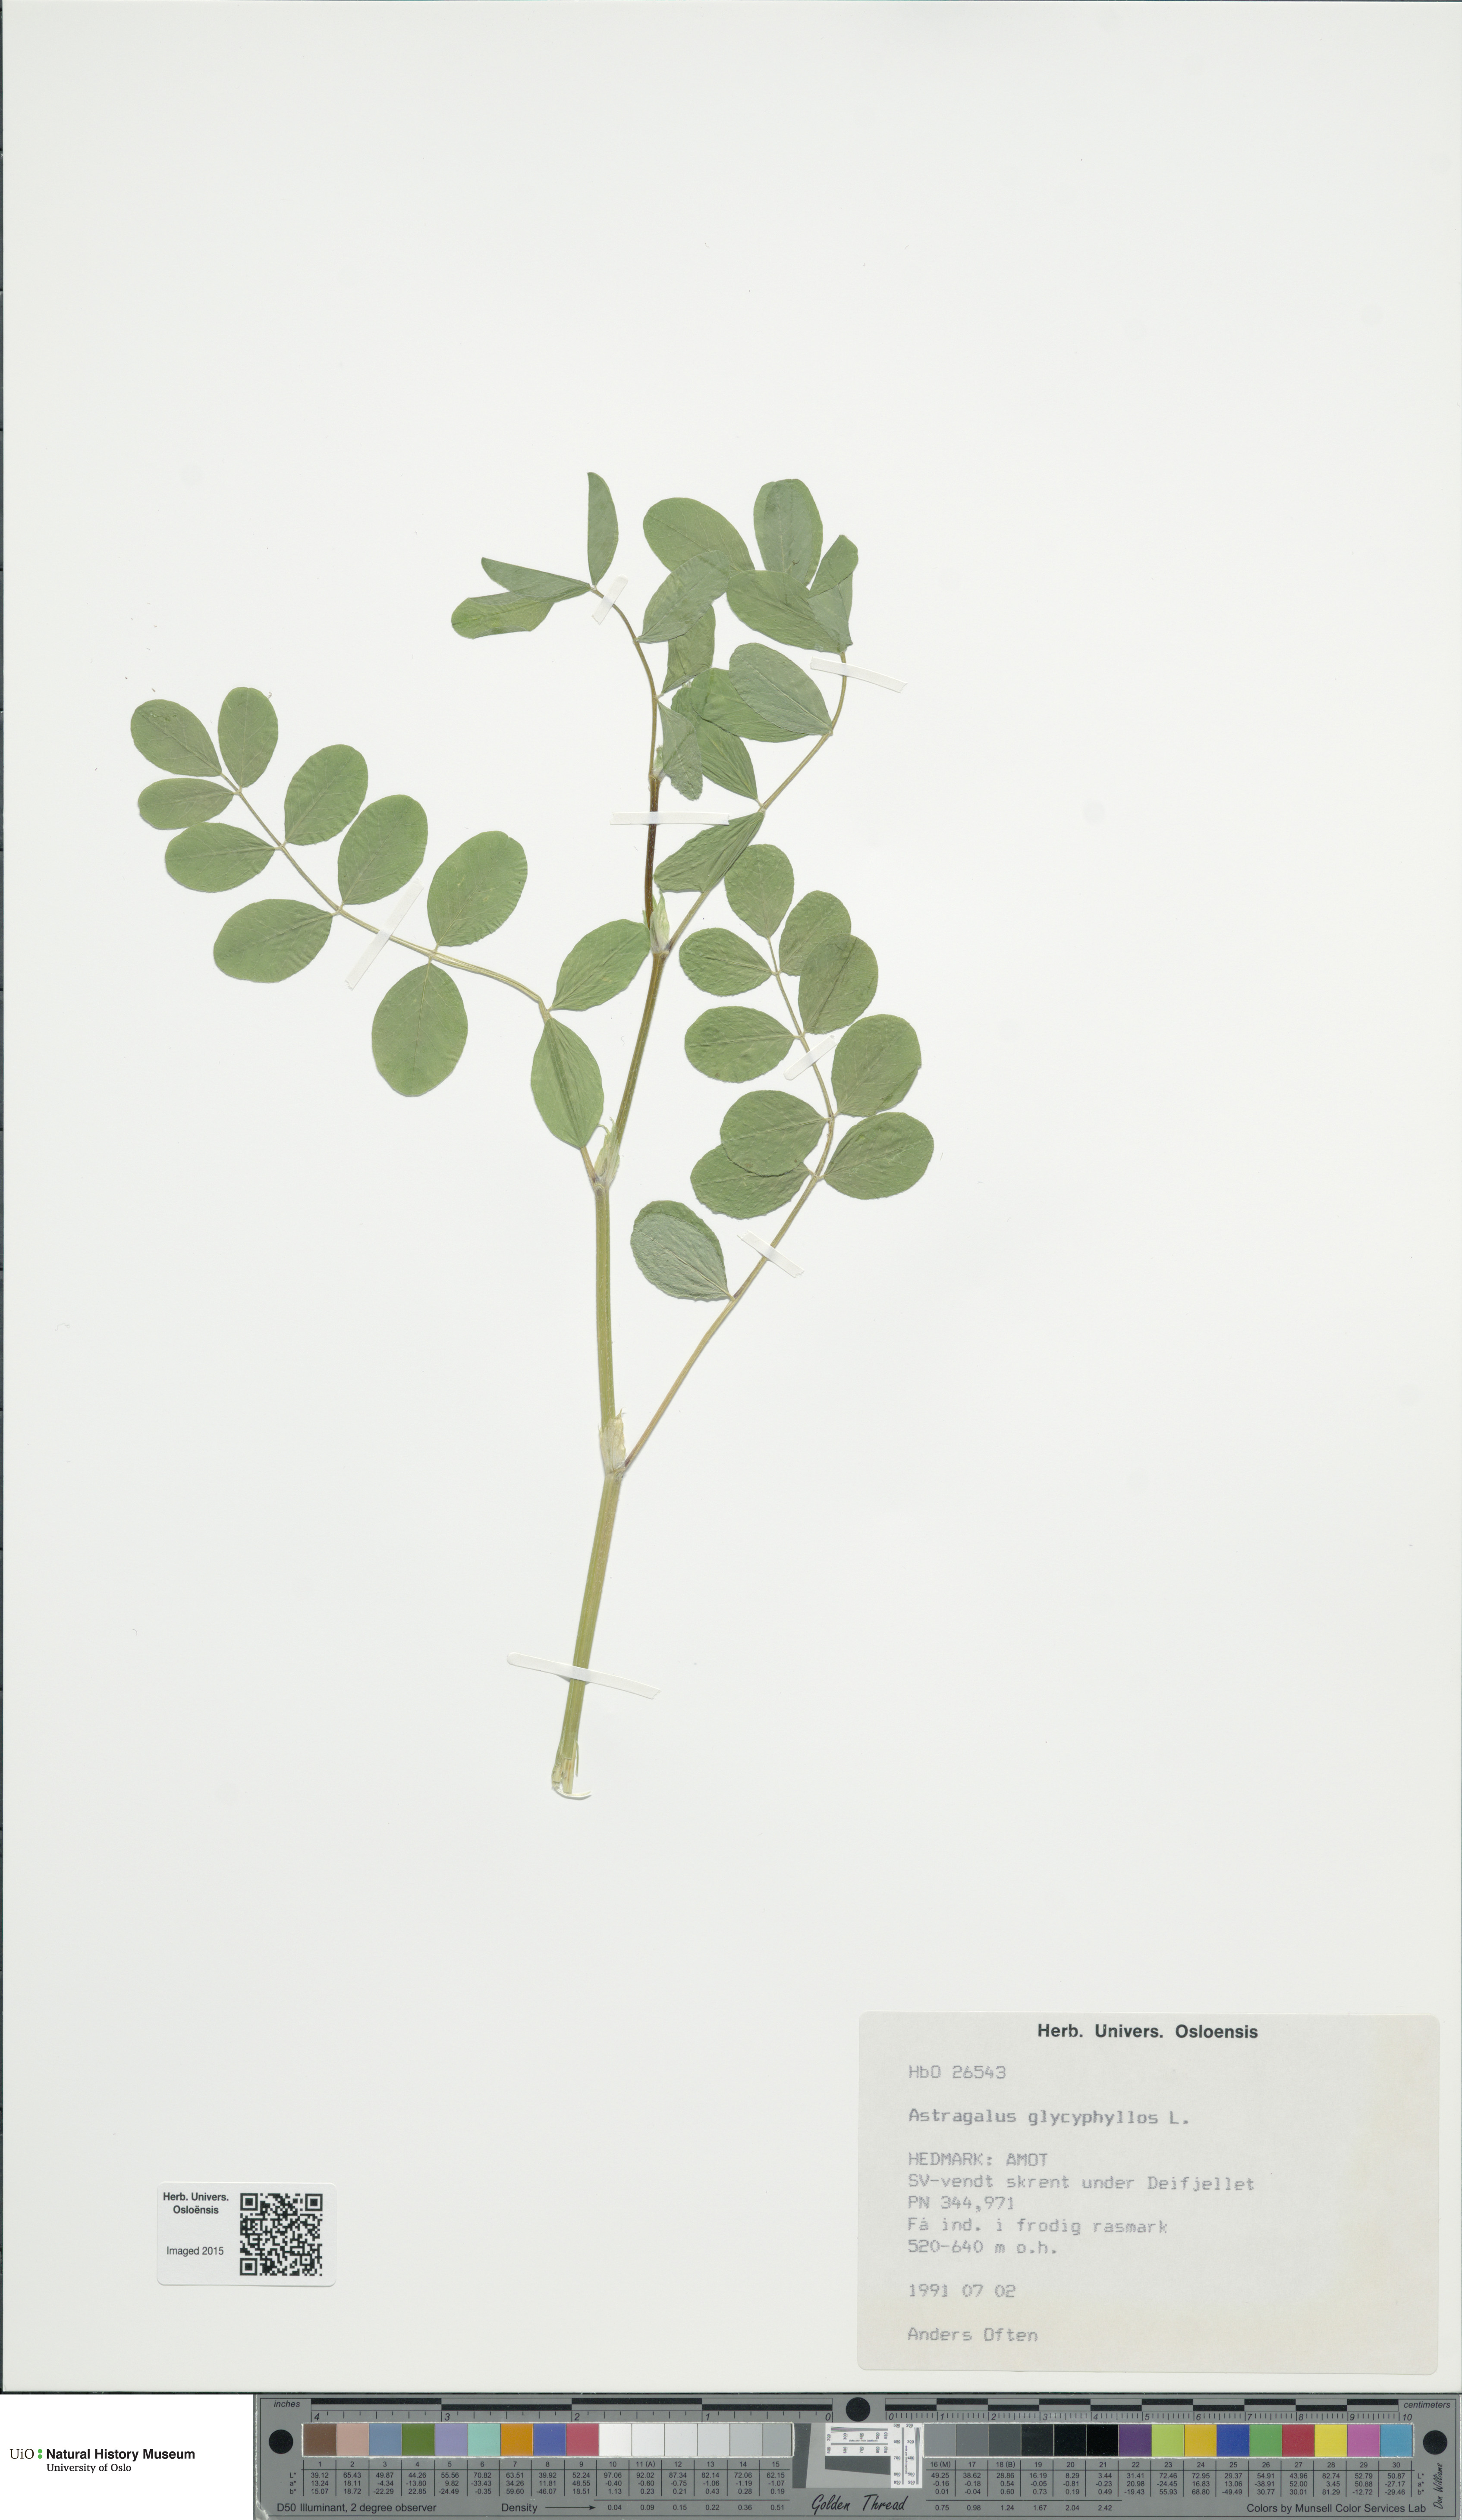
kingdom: Plantae
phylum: Tracheophyta
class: Magnoliopsida
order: Fabales
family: Fabaceae
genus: Astragalus
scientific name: Astragalus glycyphyllos
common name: Wild liquorice
